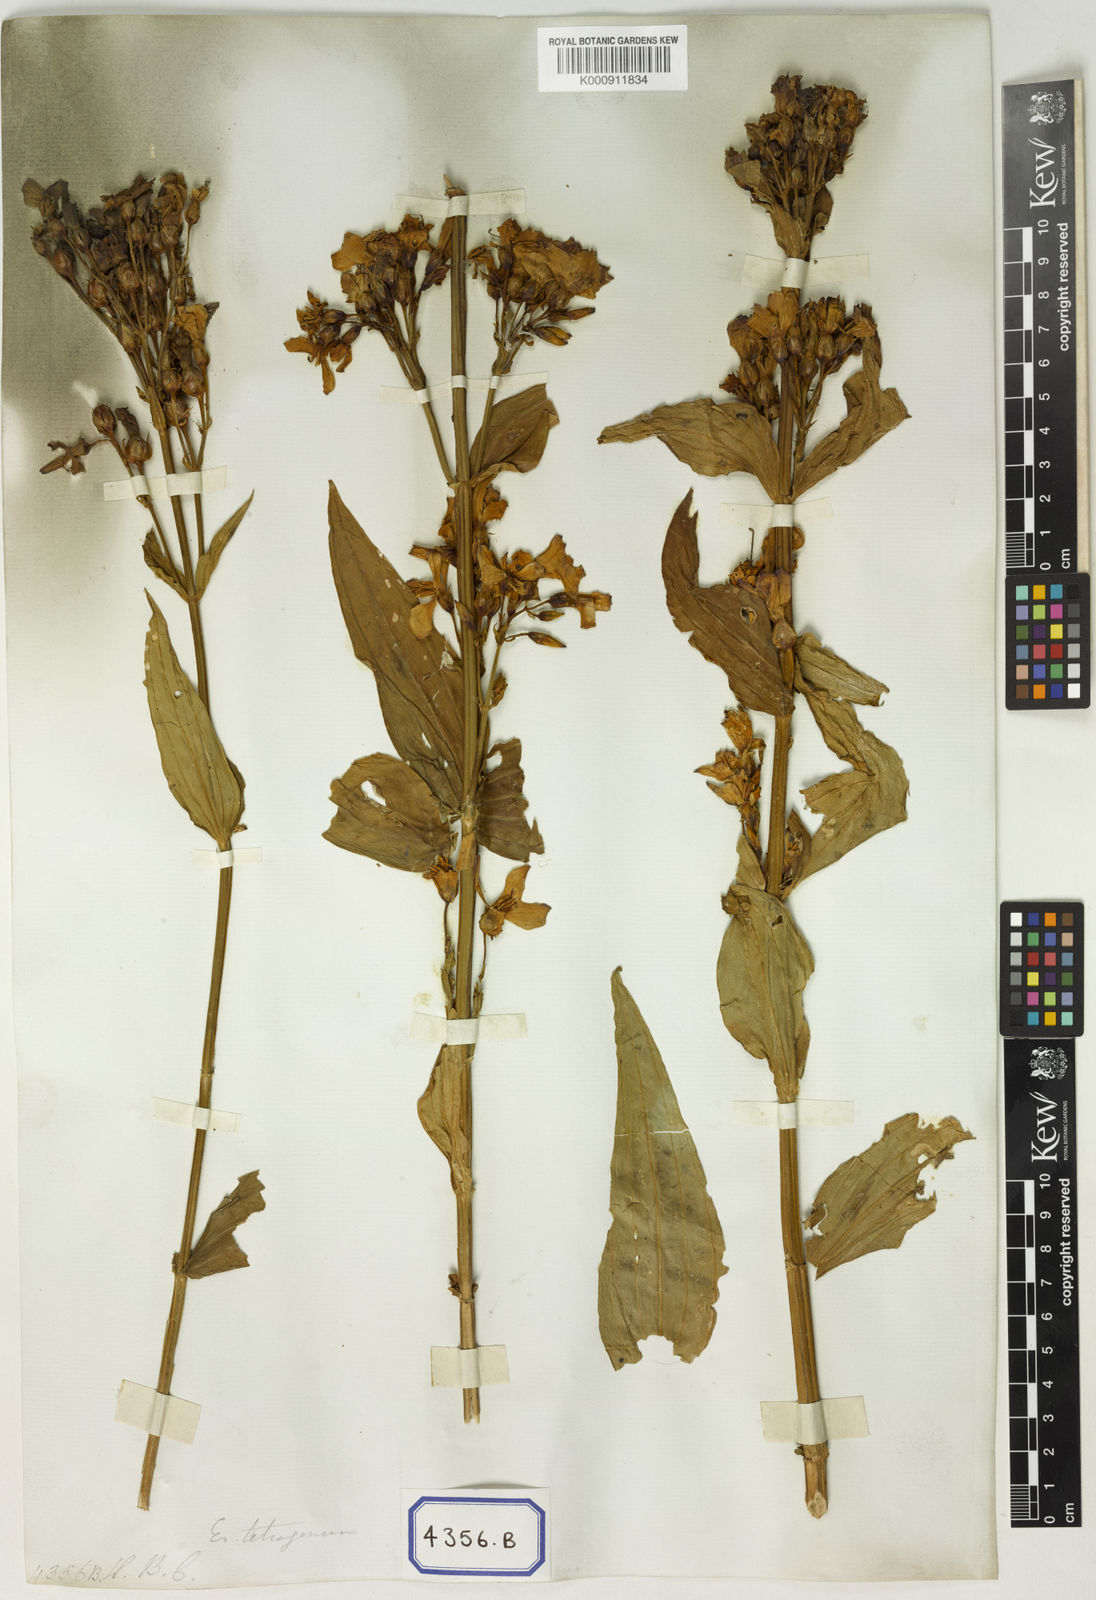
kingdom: Plantae
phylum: Tracheophyta
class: Magnoliopsida
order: Gentianales
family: Gentianaceae
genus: Exacum
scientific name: Exacum tetragonum
